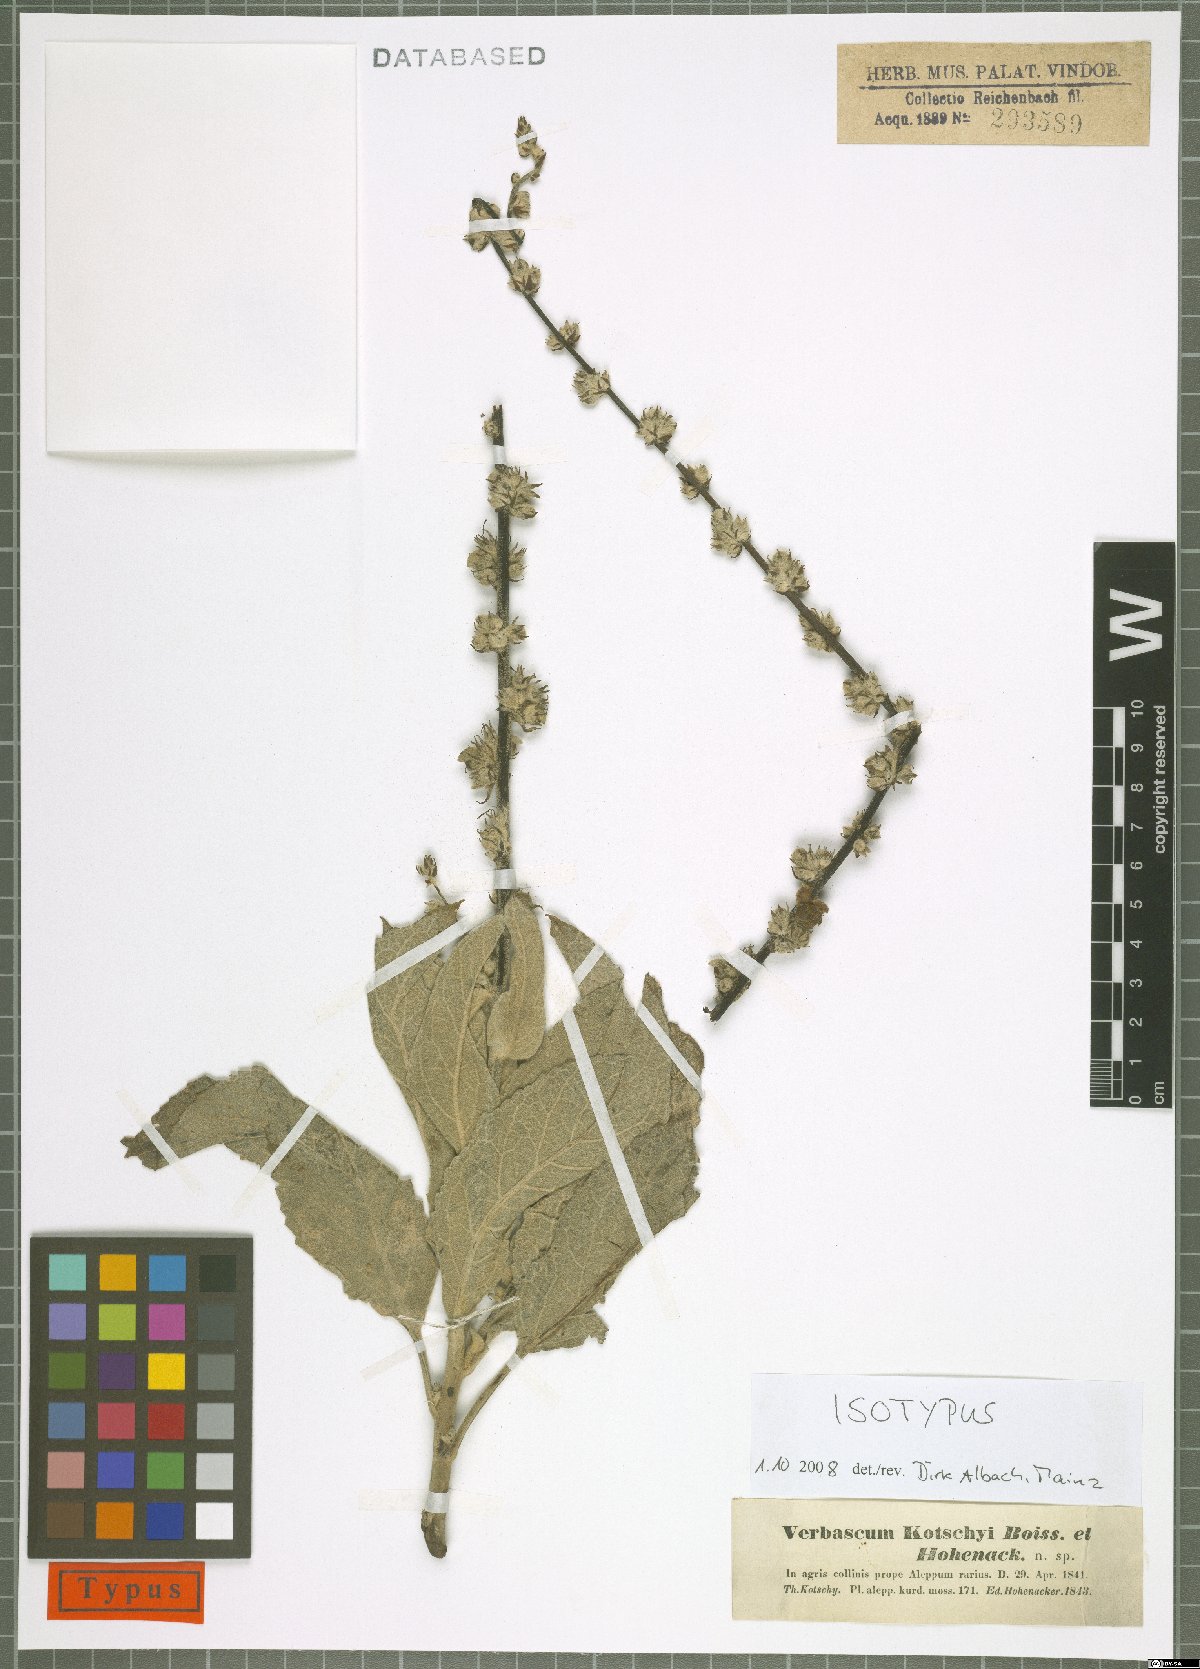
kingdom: Plantae
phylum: Tracheophyta
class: Magnoliopsida
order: Lamiales
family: Scrophulariaceae
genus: Verbascum
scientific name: Verbascum kotschyi
